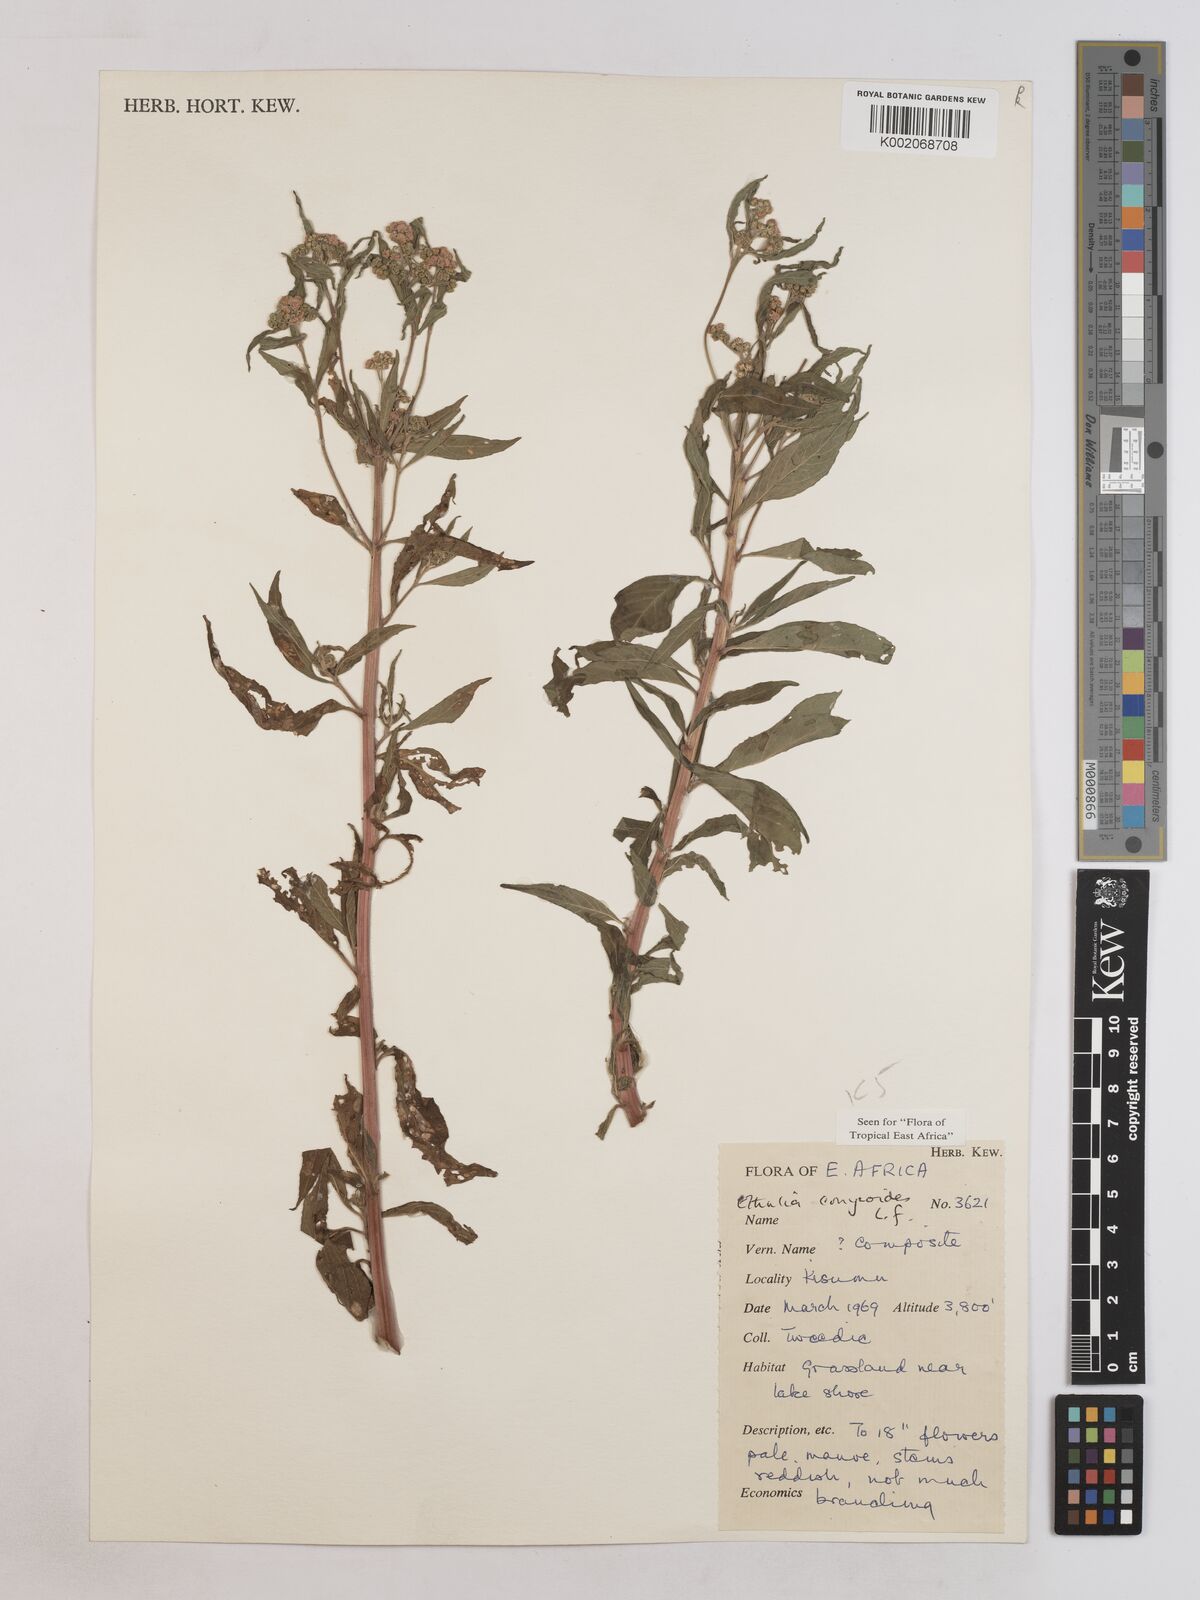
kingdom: Plantae
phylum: Tracheophyta
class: Magnoliopsida
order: Asterales
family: Asteraceae
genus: Ethulia
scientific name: Ethulia
